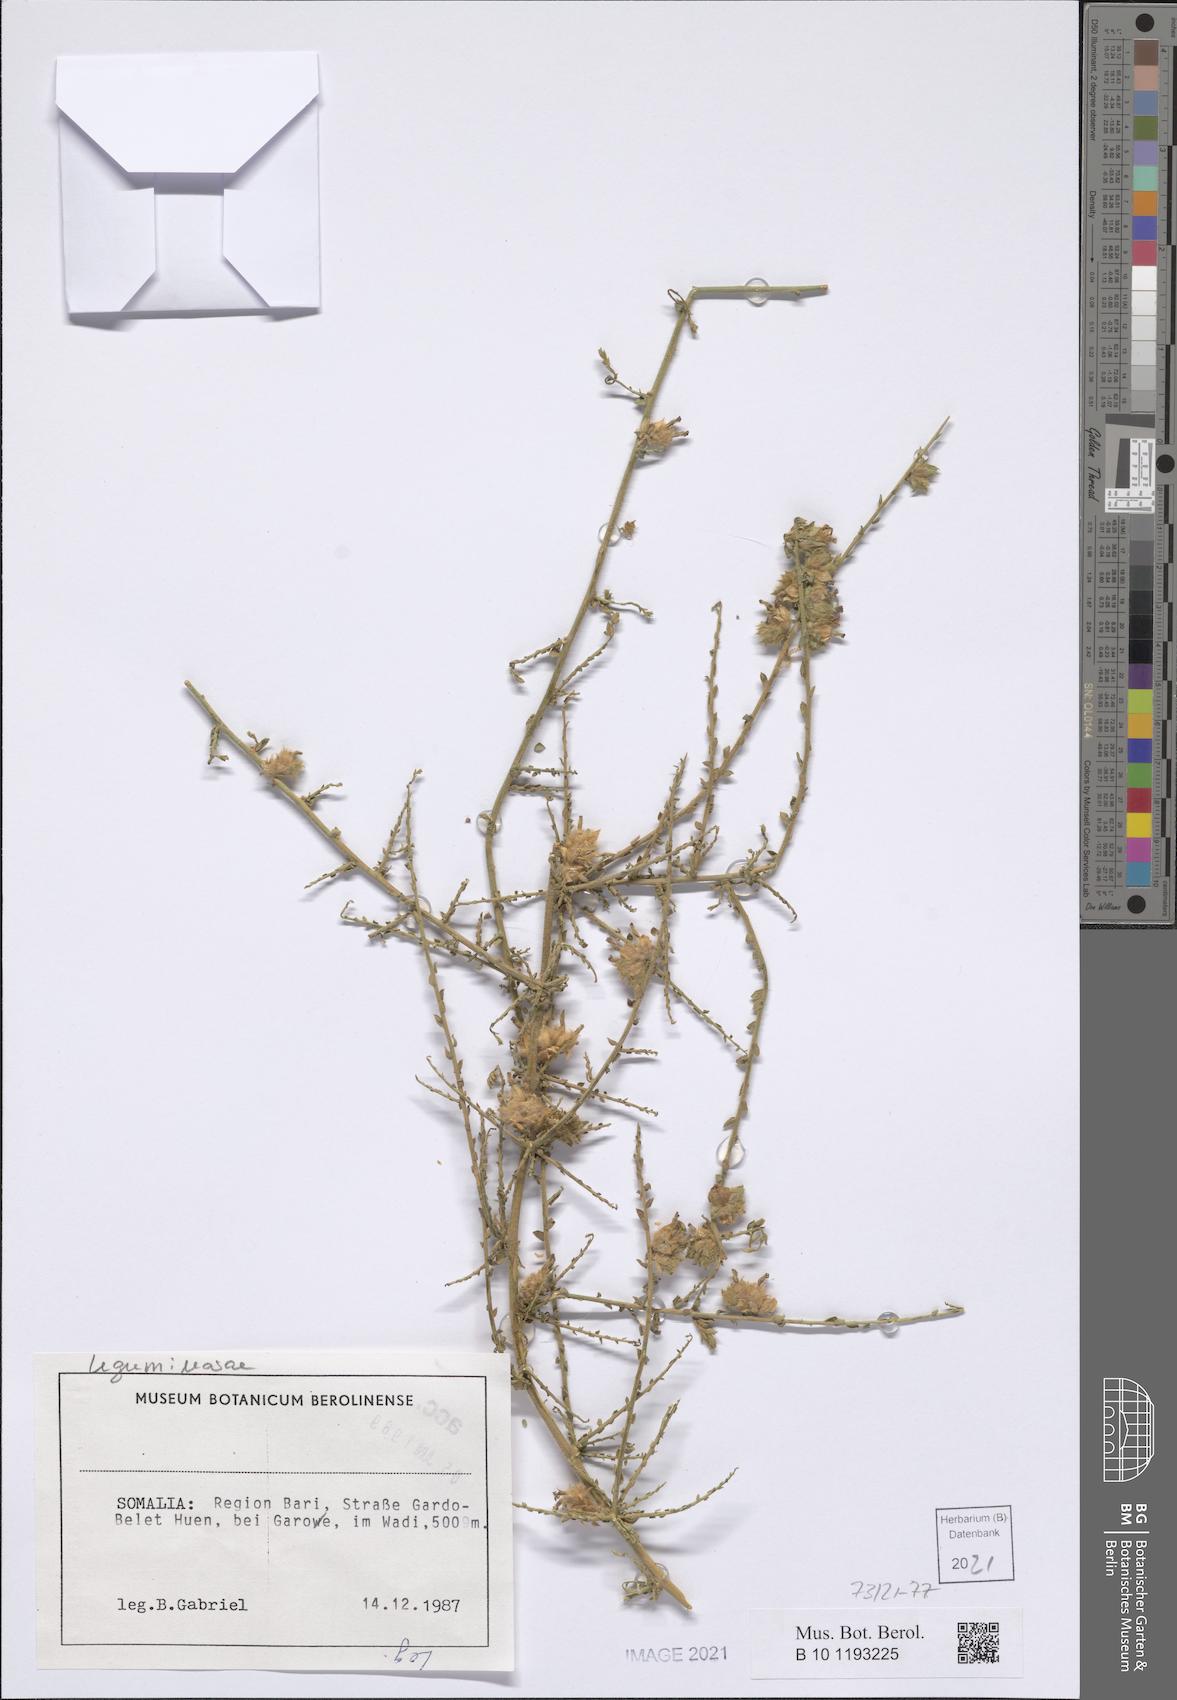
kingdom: Plantae
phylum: Tracheophyta
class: Magnoliopsida
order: Solanales
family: Convolvulaceae
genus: Convolvulus
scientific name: Convolvulus hystrix
